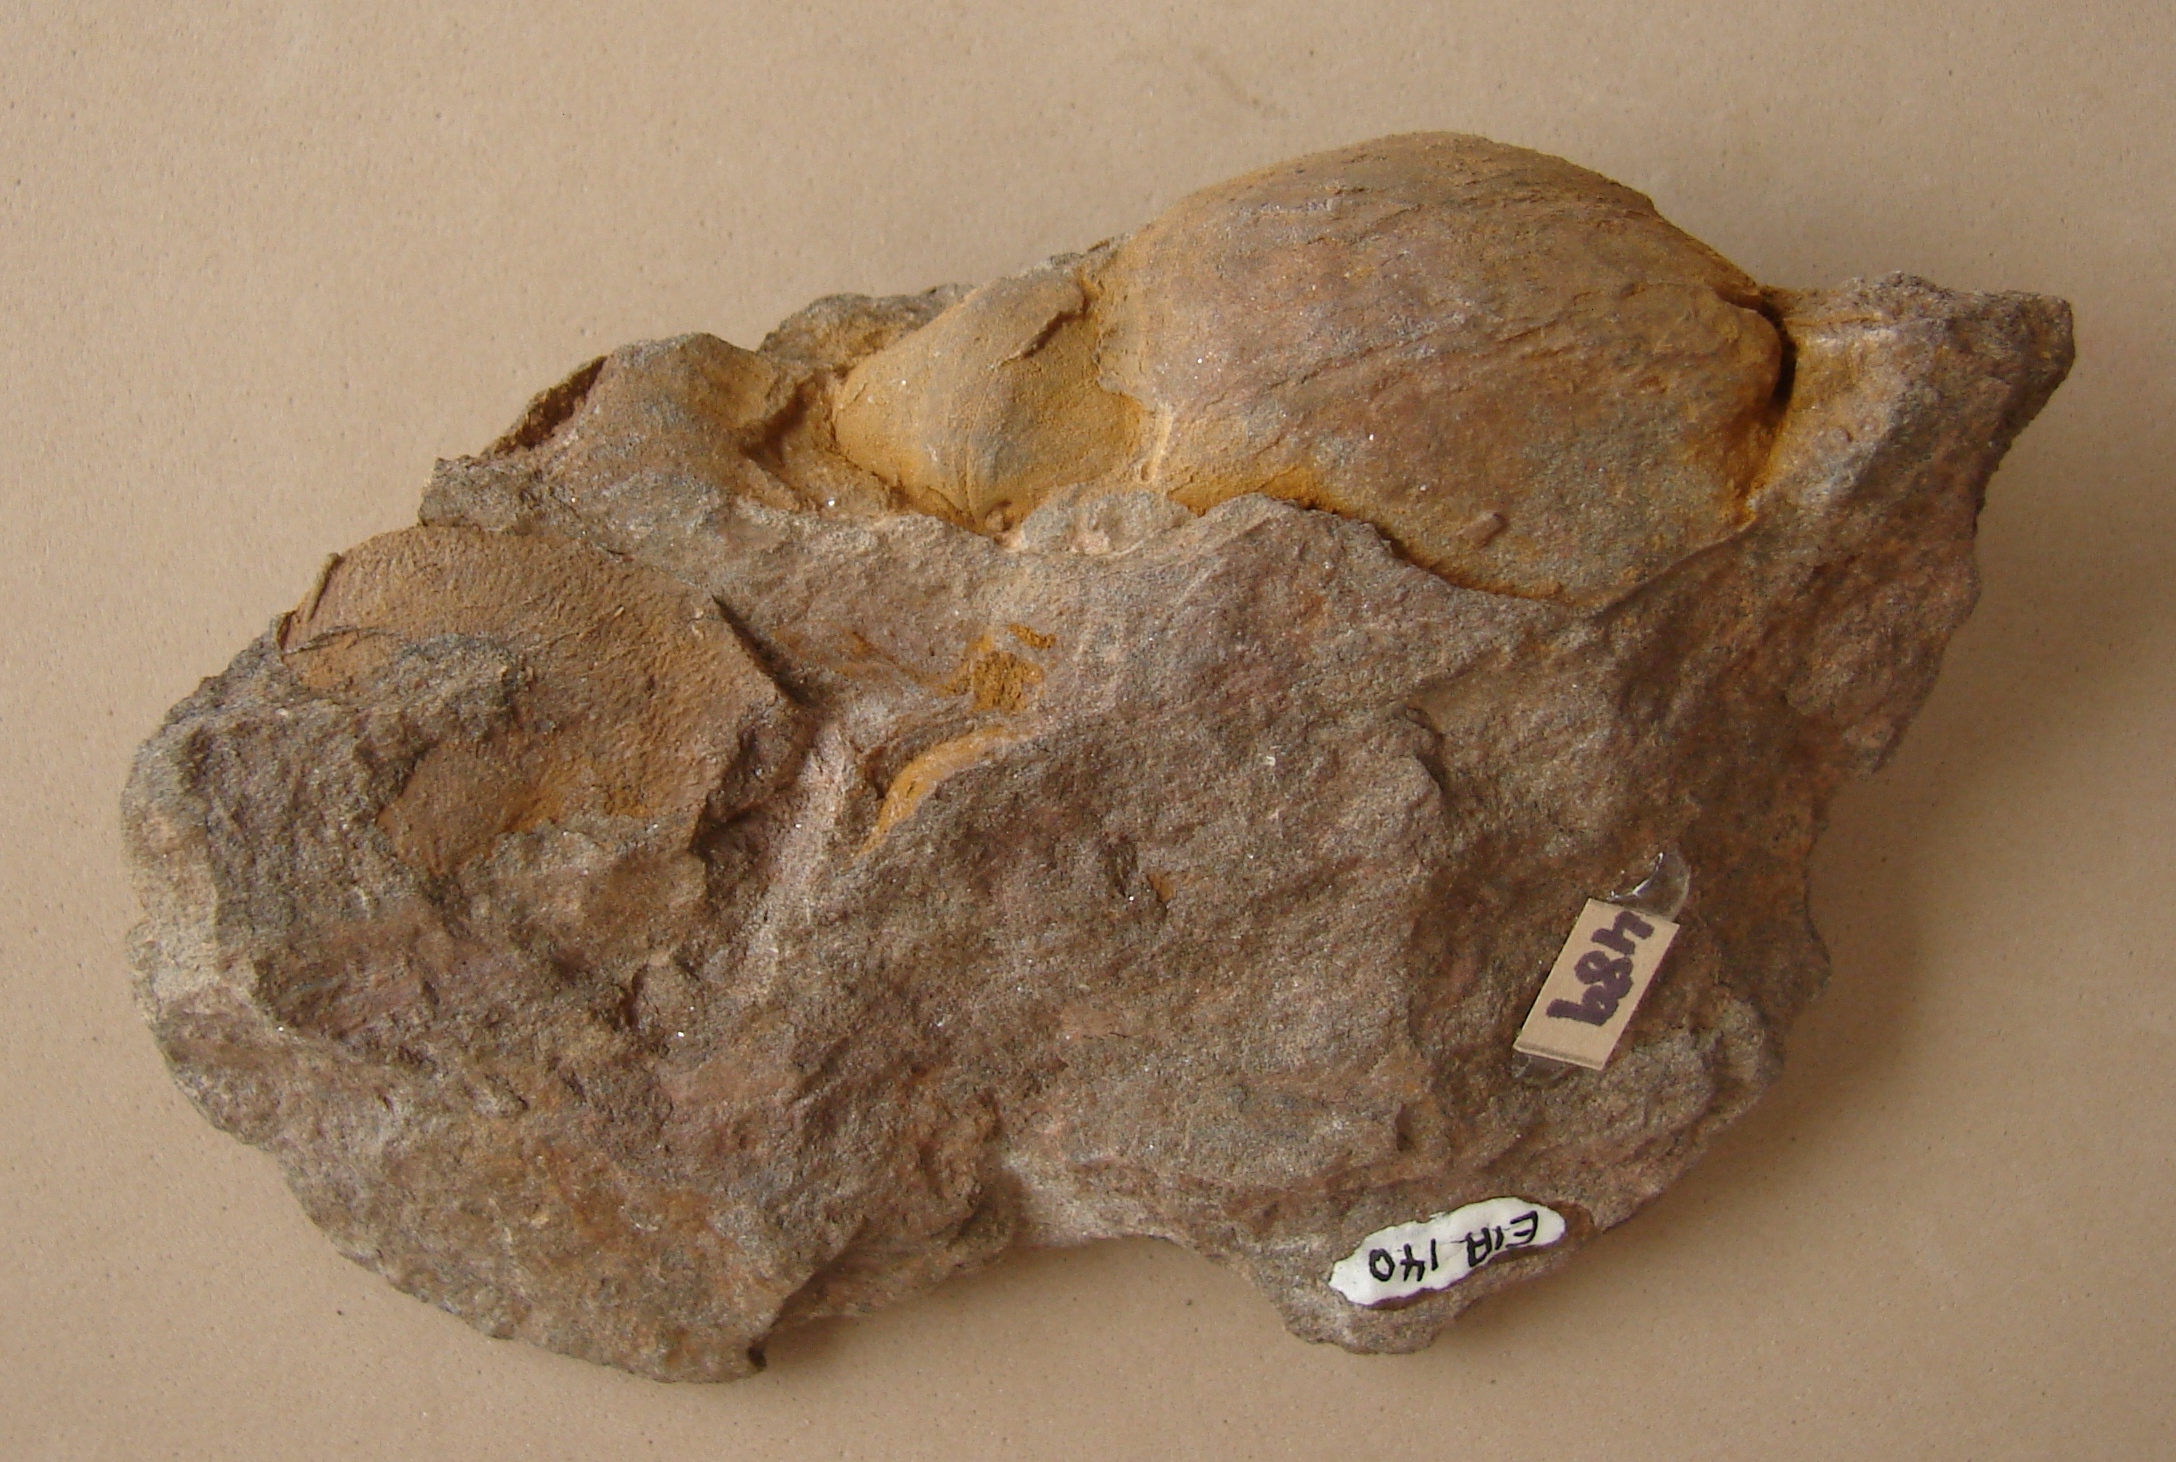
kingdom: Animalia
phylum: Brachiopoda
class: Rhynchonellata
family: Atrypidae
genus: Atrypa
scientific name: Atrypa
